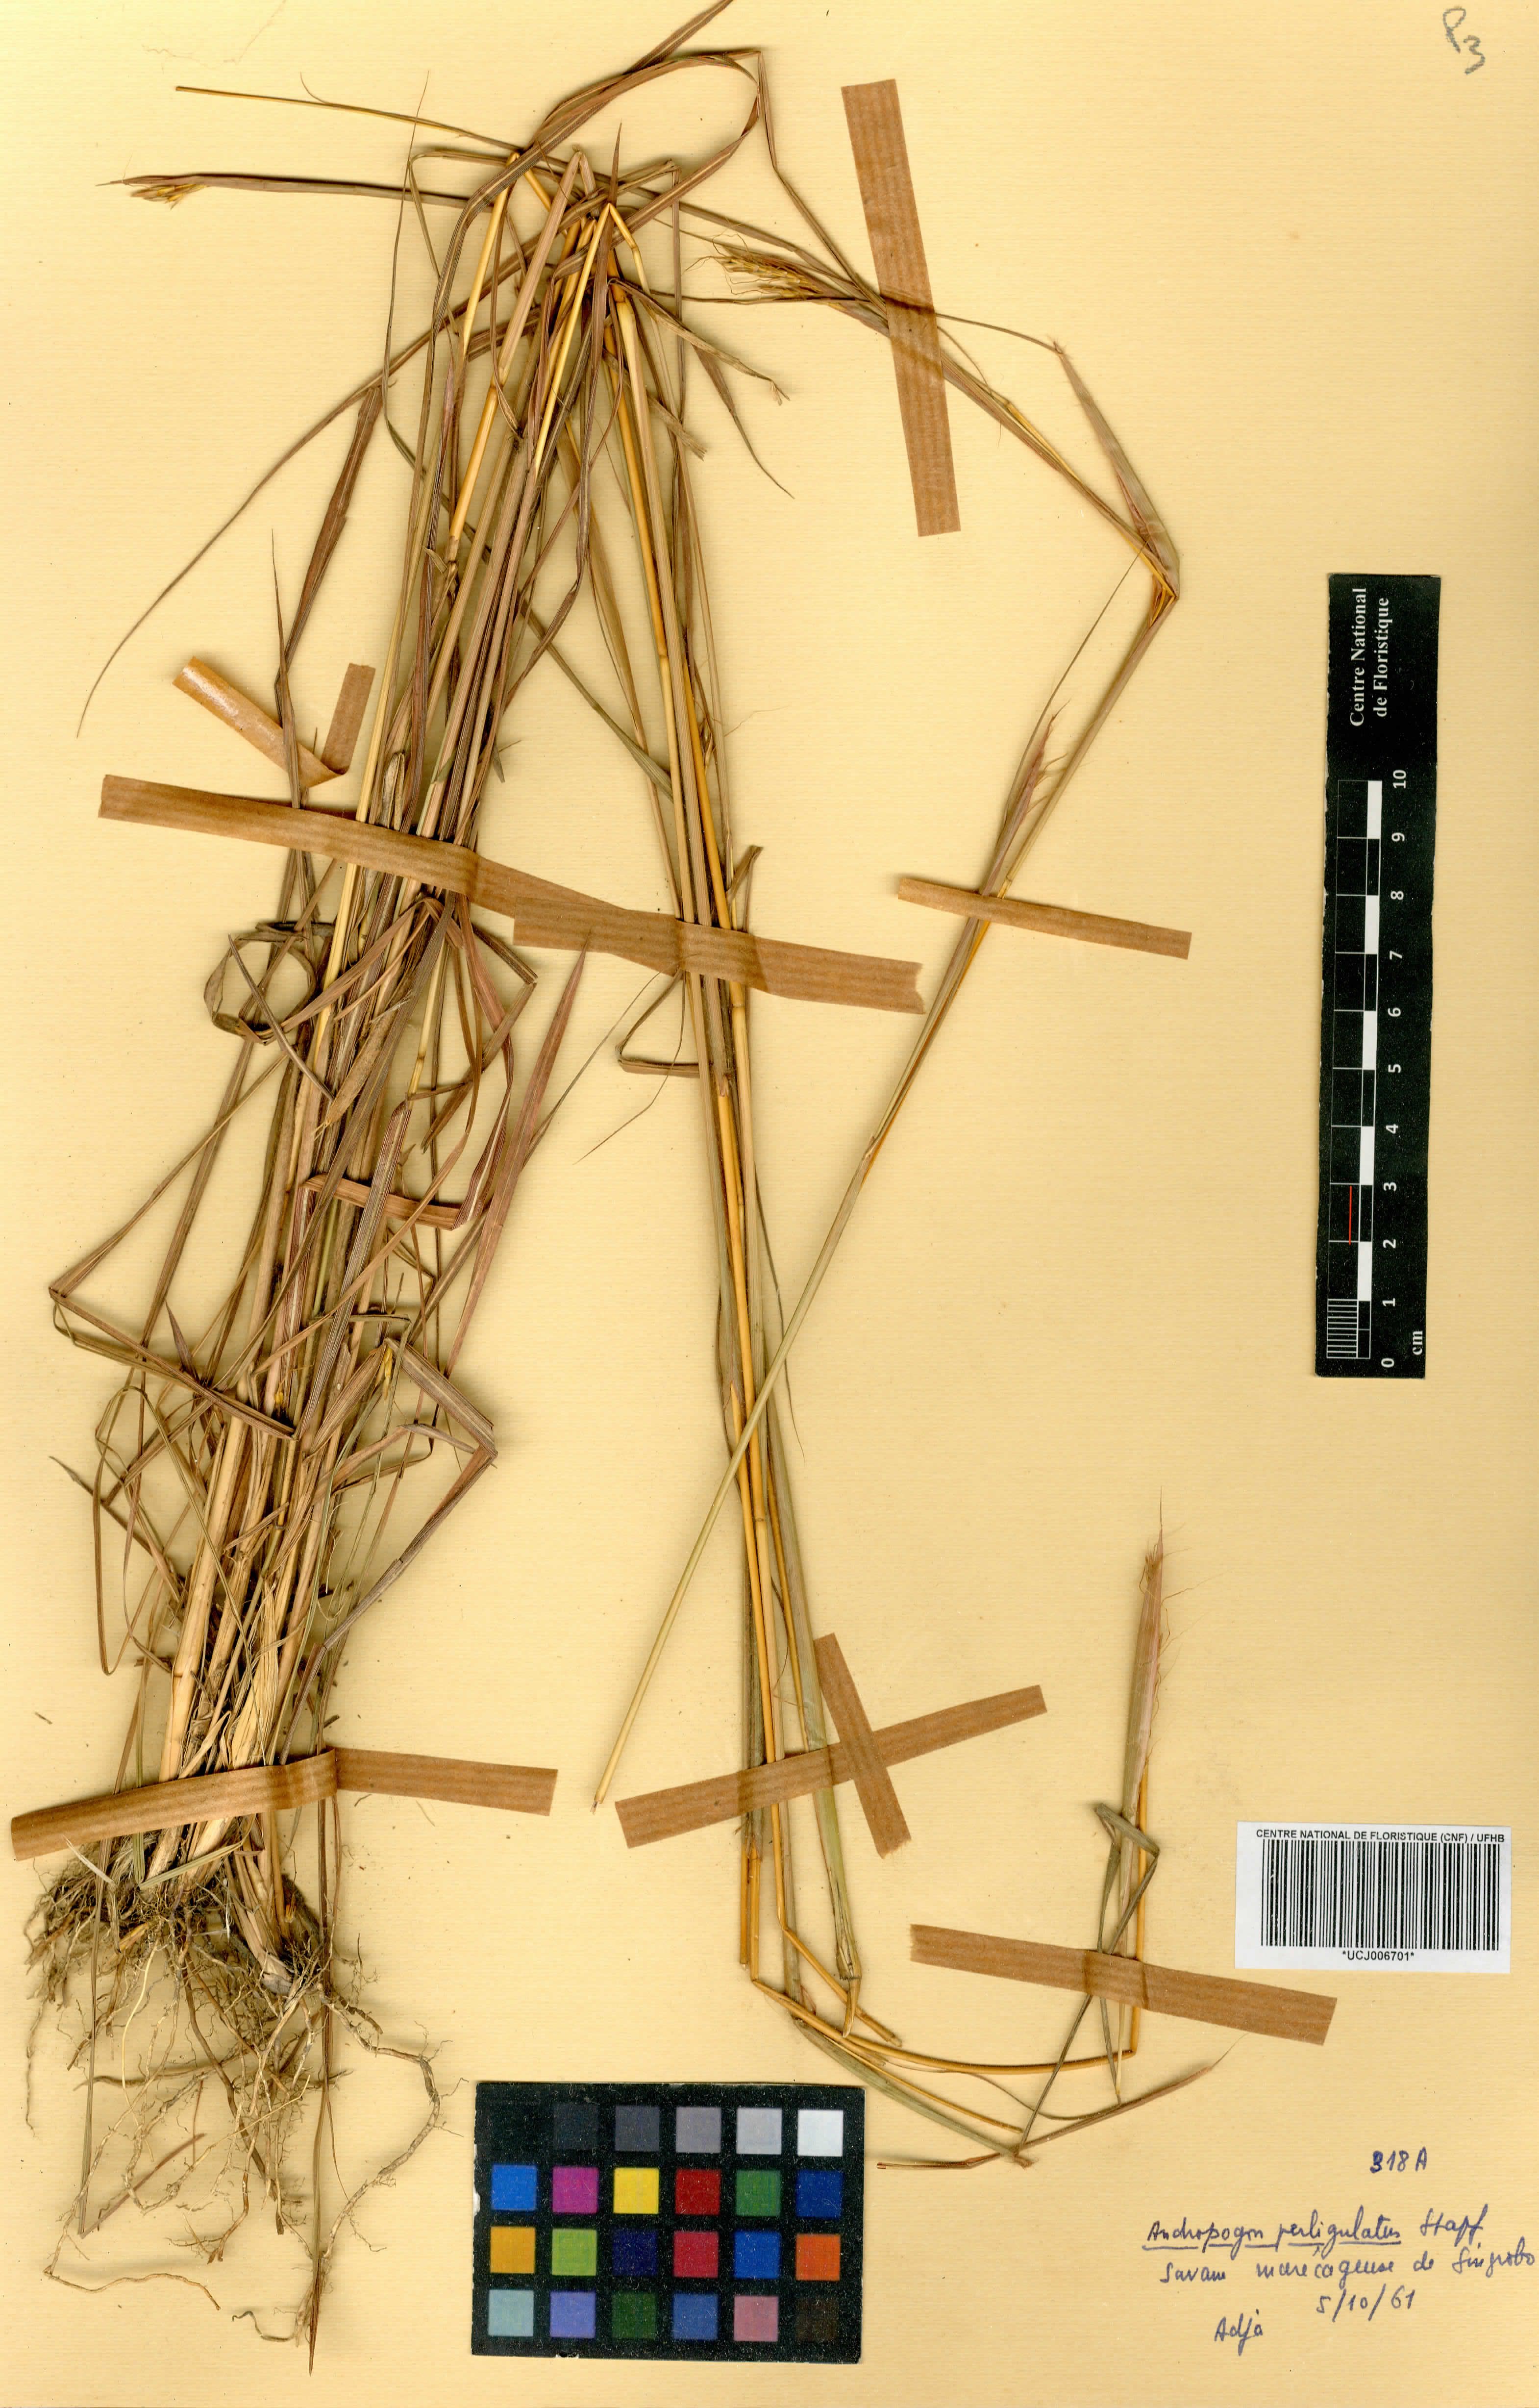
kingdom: Plantae
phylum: Tracheophyta
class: Liliopsida
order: Poales
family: Poaceae
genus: Andropogon
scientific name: Andropogon perligulatus
